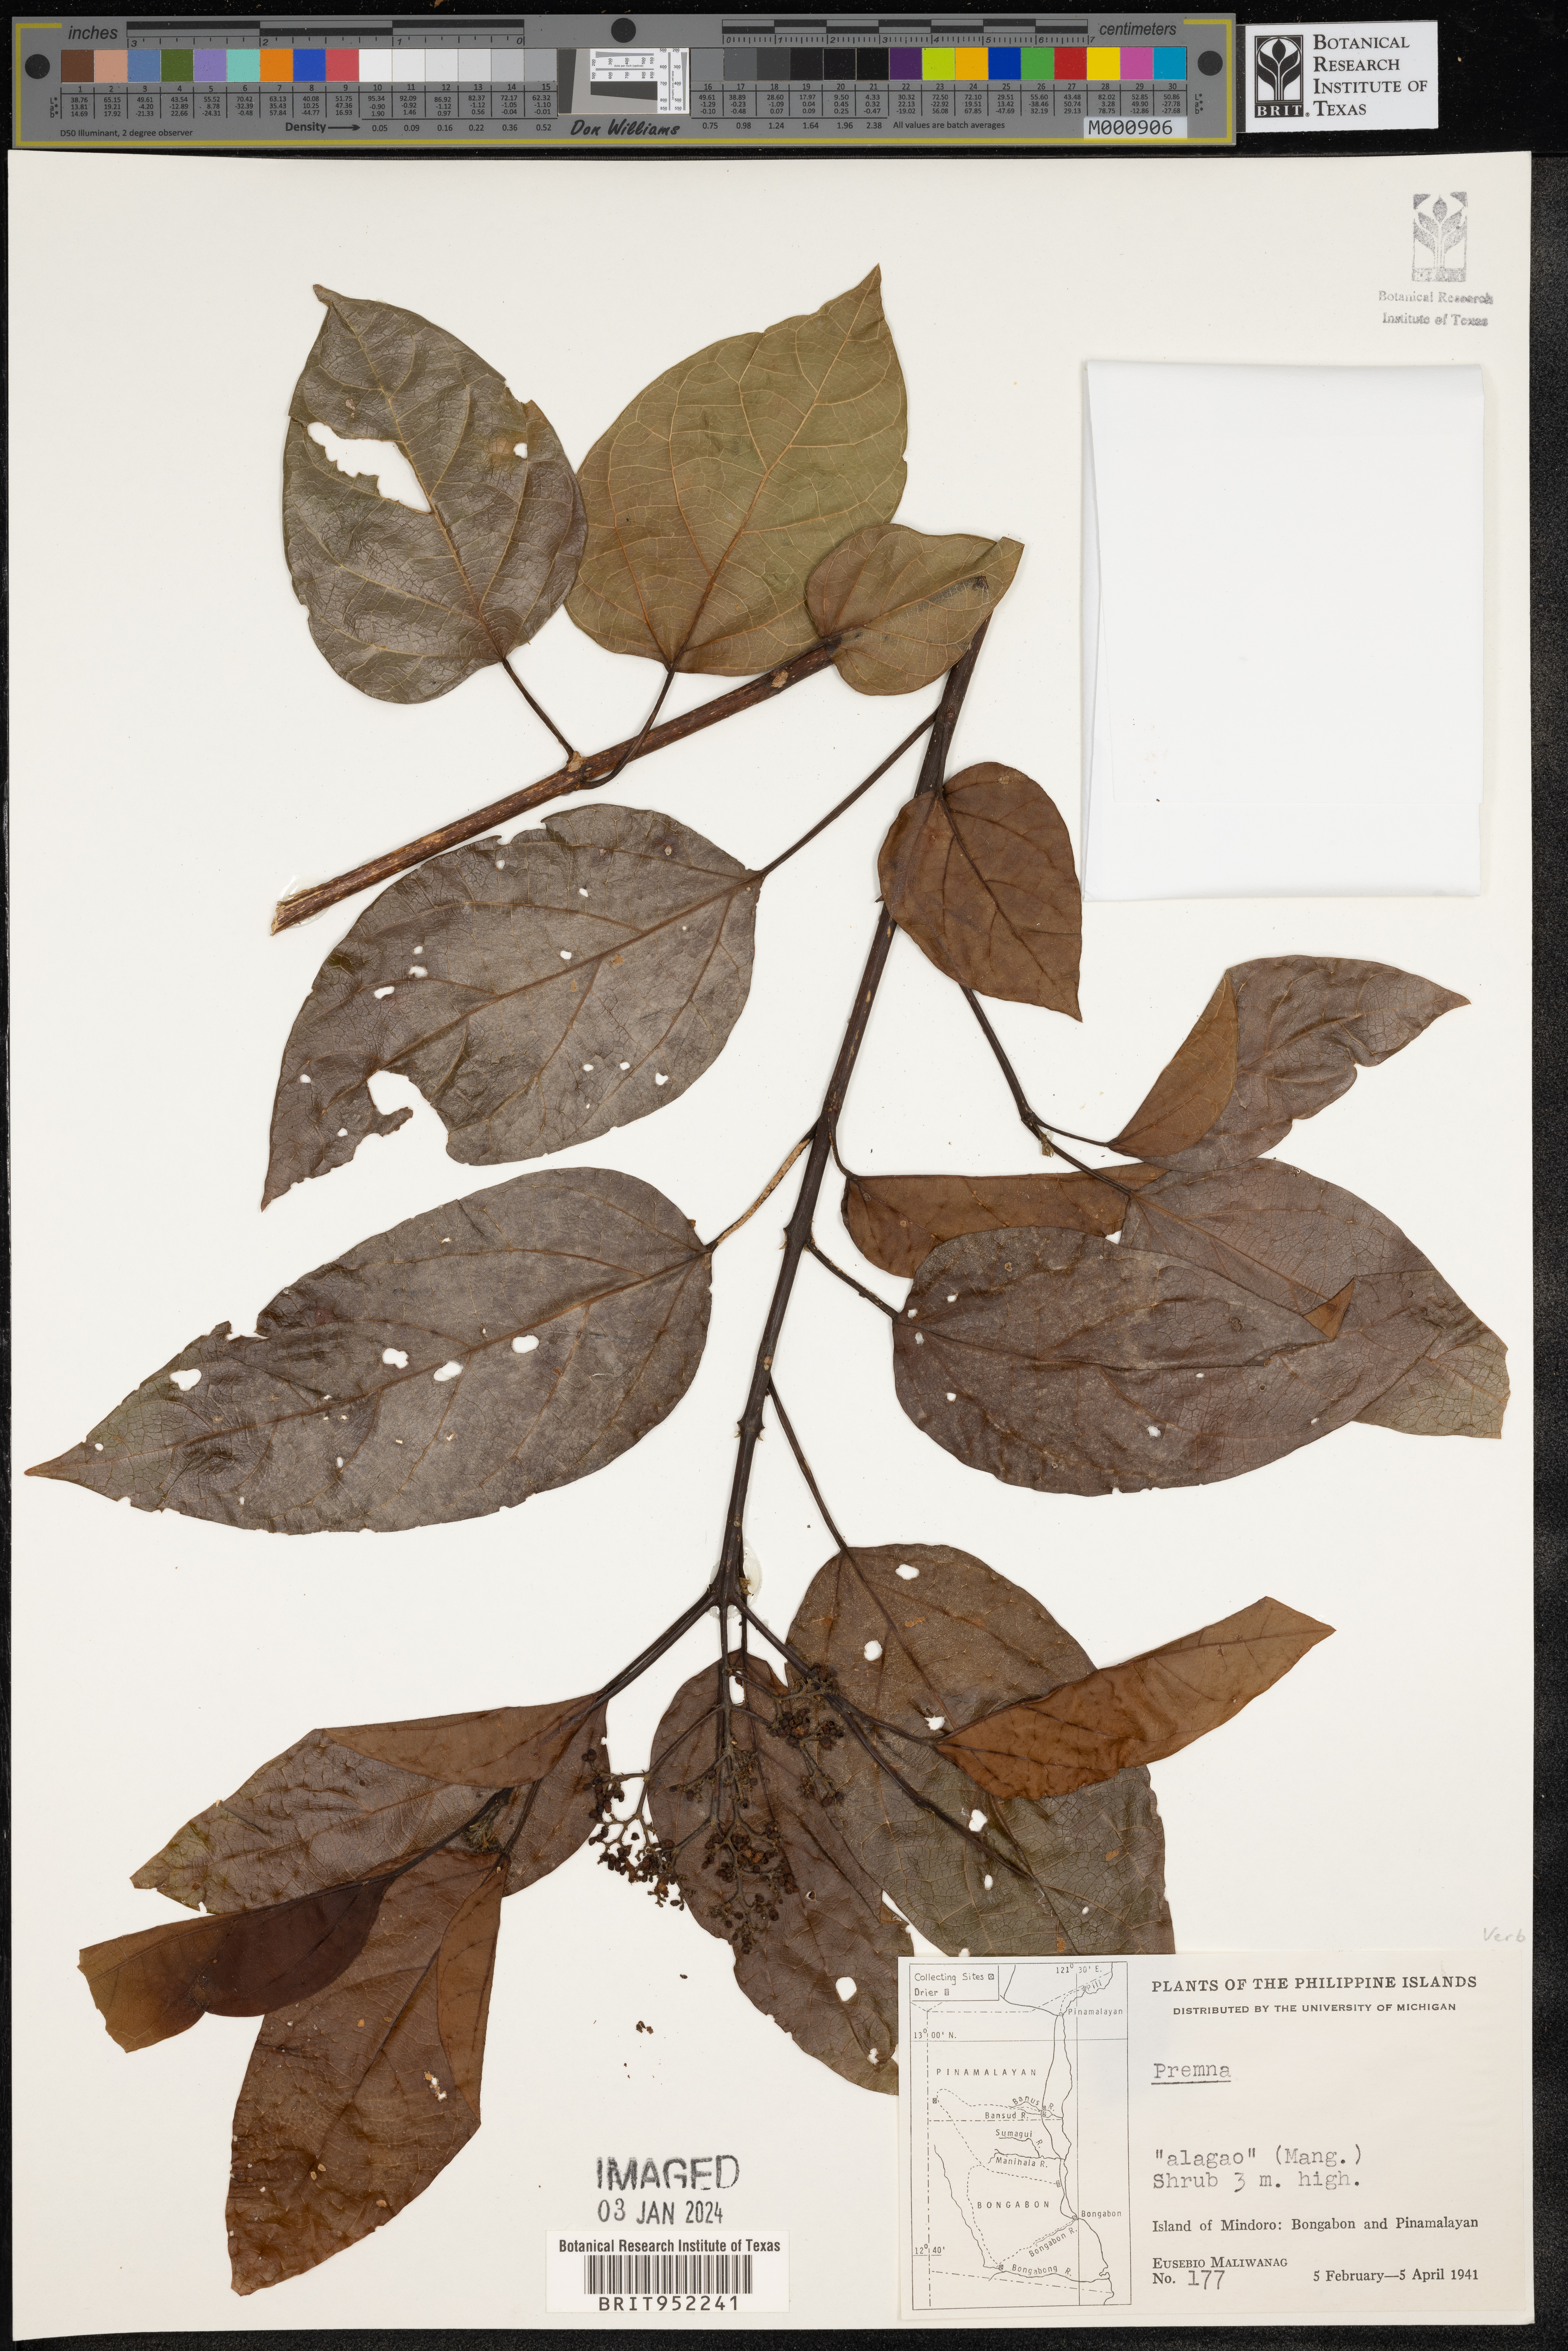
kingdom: Plantae
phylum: Tracheophyta
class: Magnoliopsida
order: Lamiales
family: Lamiaceae
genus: Premna
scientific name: Premna
